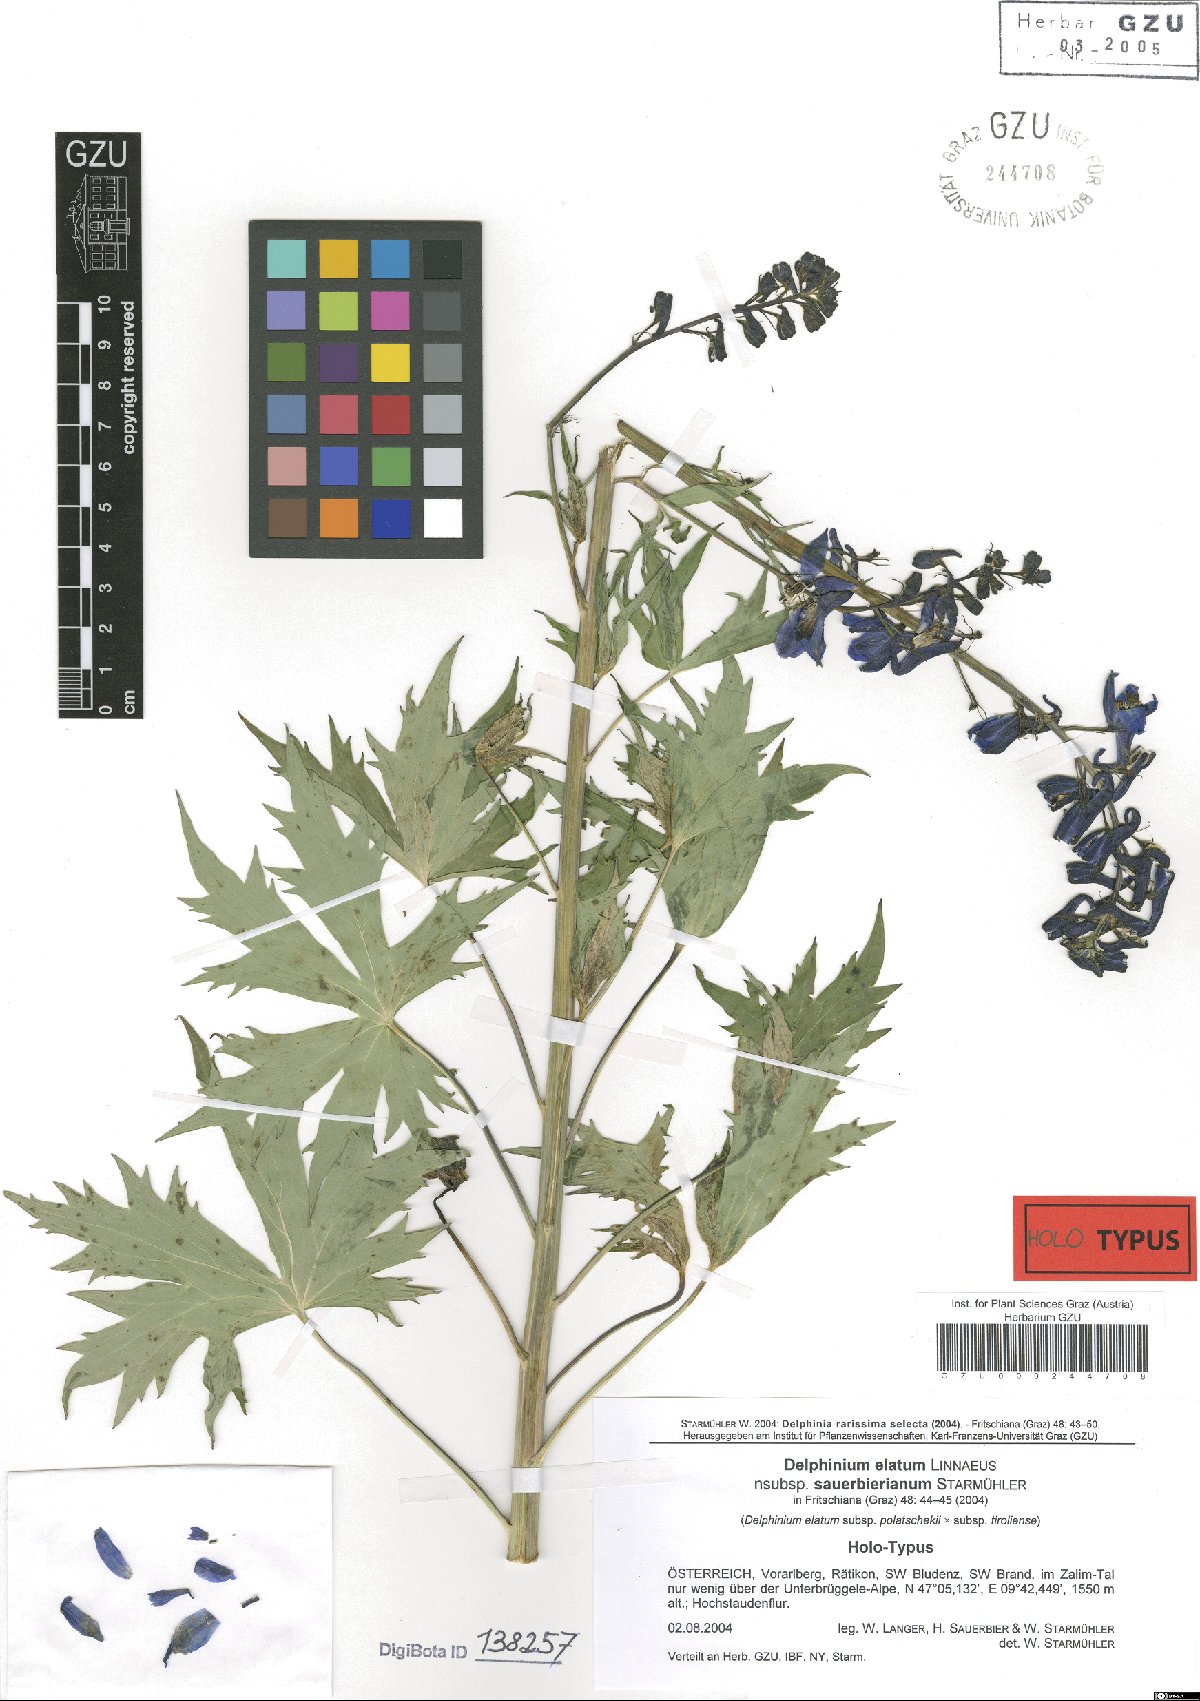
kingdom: Plantae
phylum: Tracheophyta
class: Magnoliopsida
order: Ranunculales
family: Ranunculaceae
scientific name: Ranunculaceae
